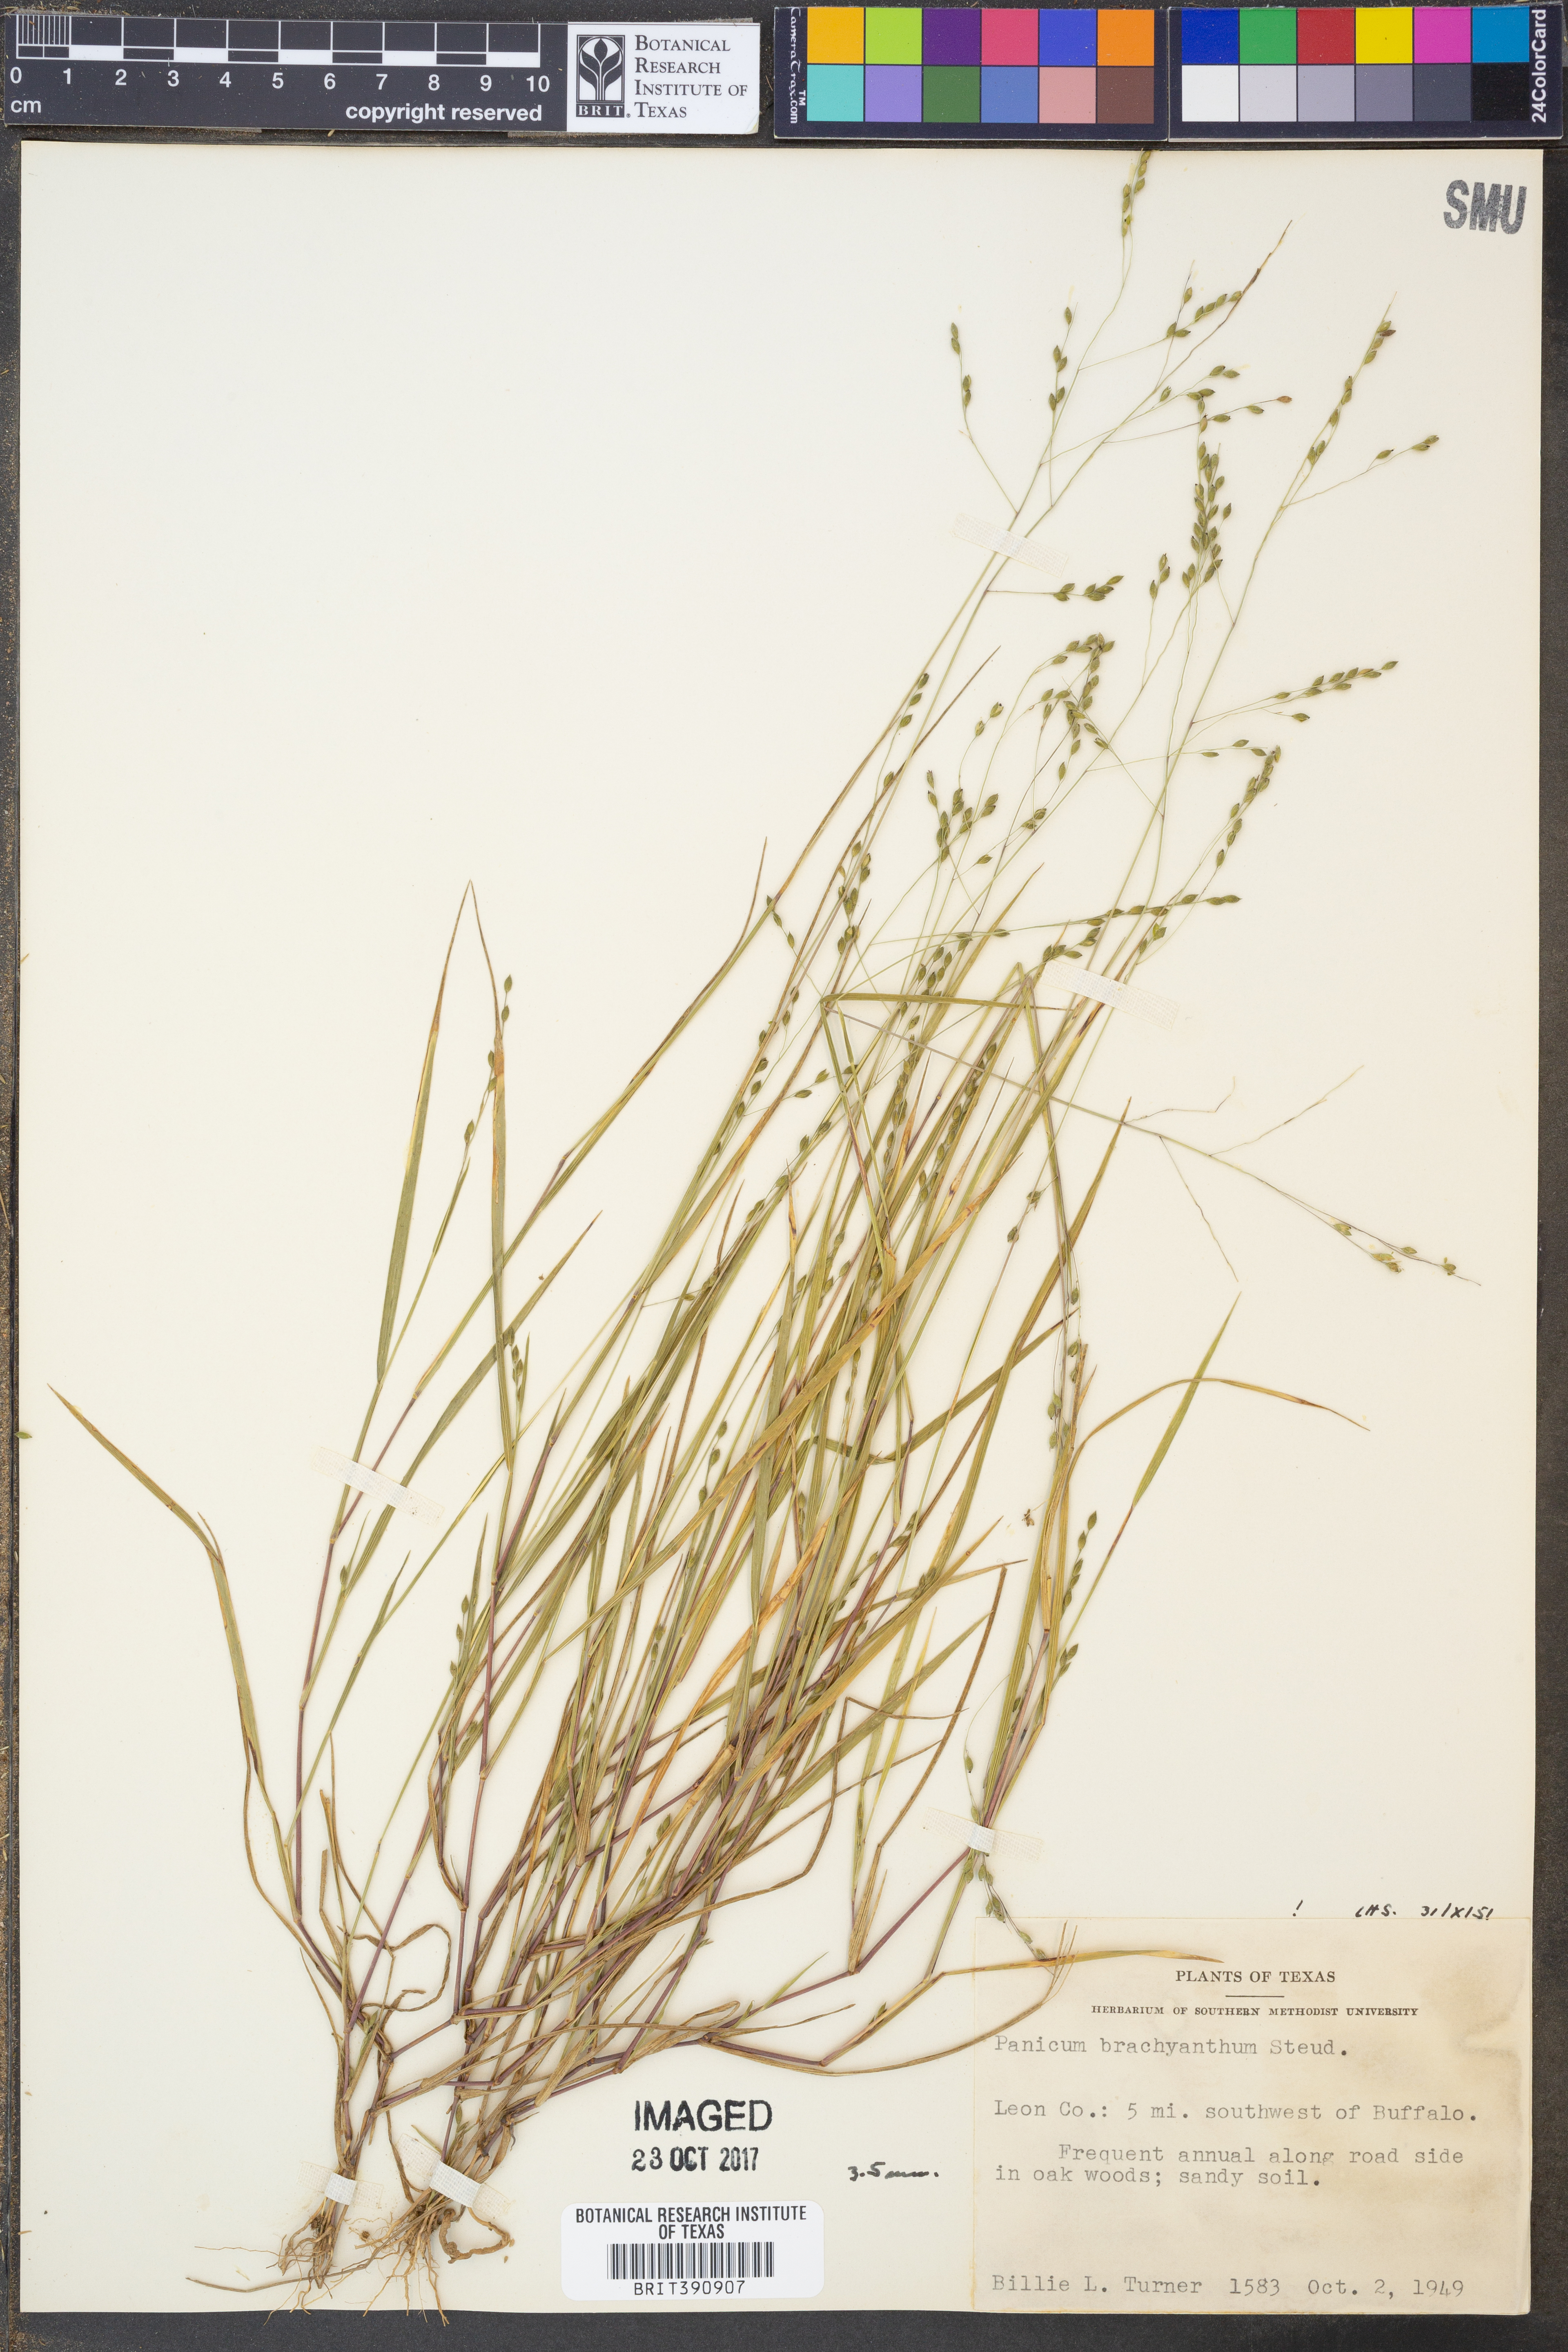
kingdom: Plantae
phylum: Tracheophyta
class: Liliopsida
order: Poales
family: Poaceae
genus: Kellochloa
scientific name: Kellochloa brachyantha
